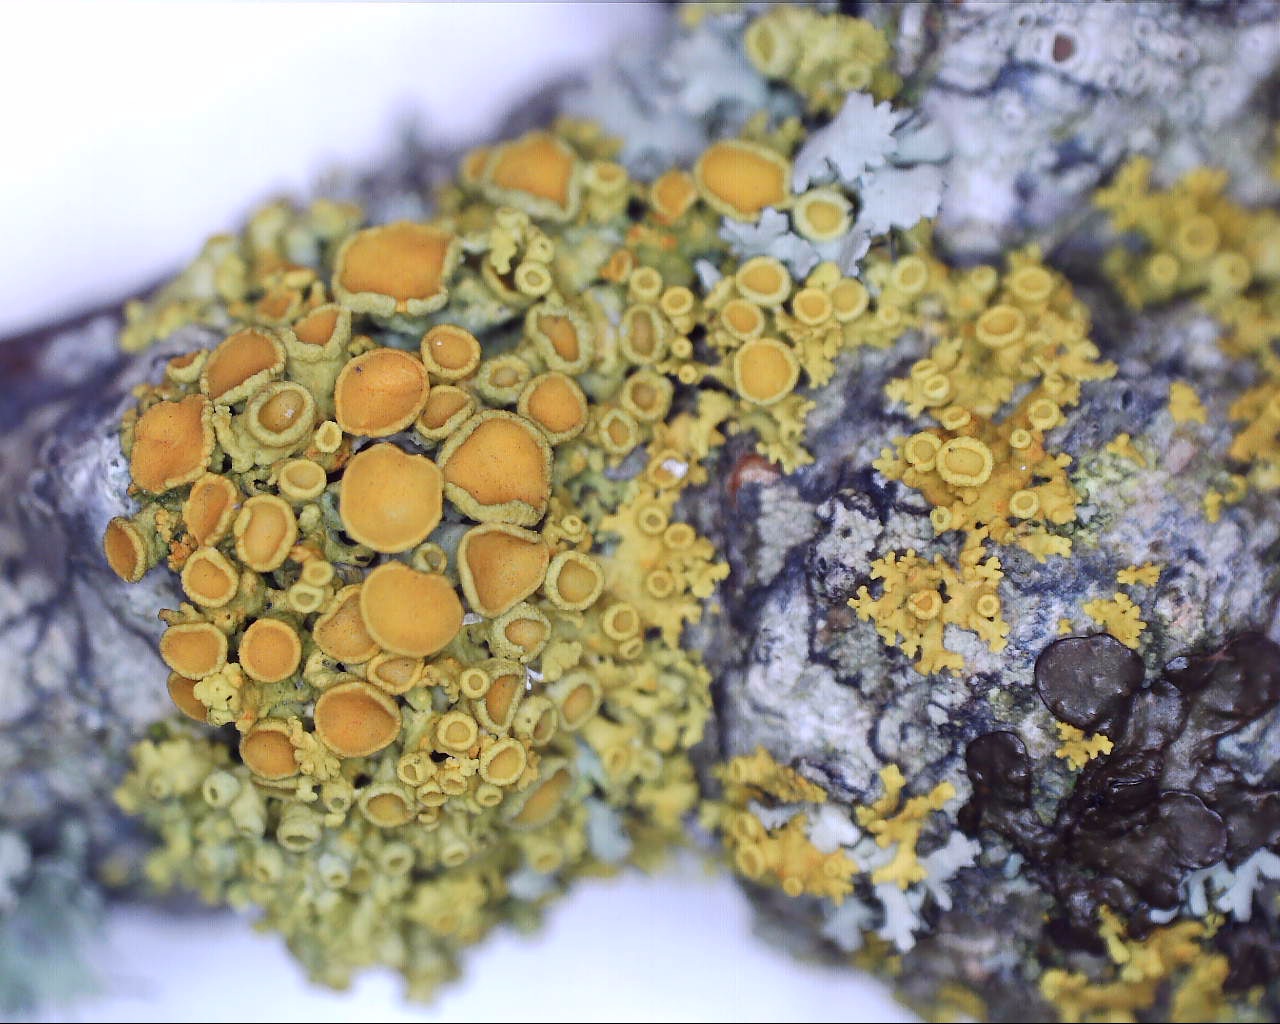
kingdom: Fungi
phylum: Ascomycota
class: Lecanoromycetes
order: Teloschistales
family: Teloschistaceae
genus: Polycauliona
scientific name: Polycauliona polycarpa
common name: mangefrugtet orangelav
